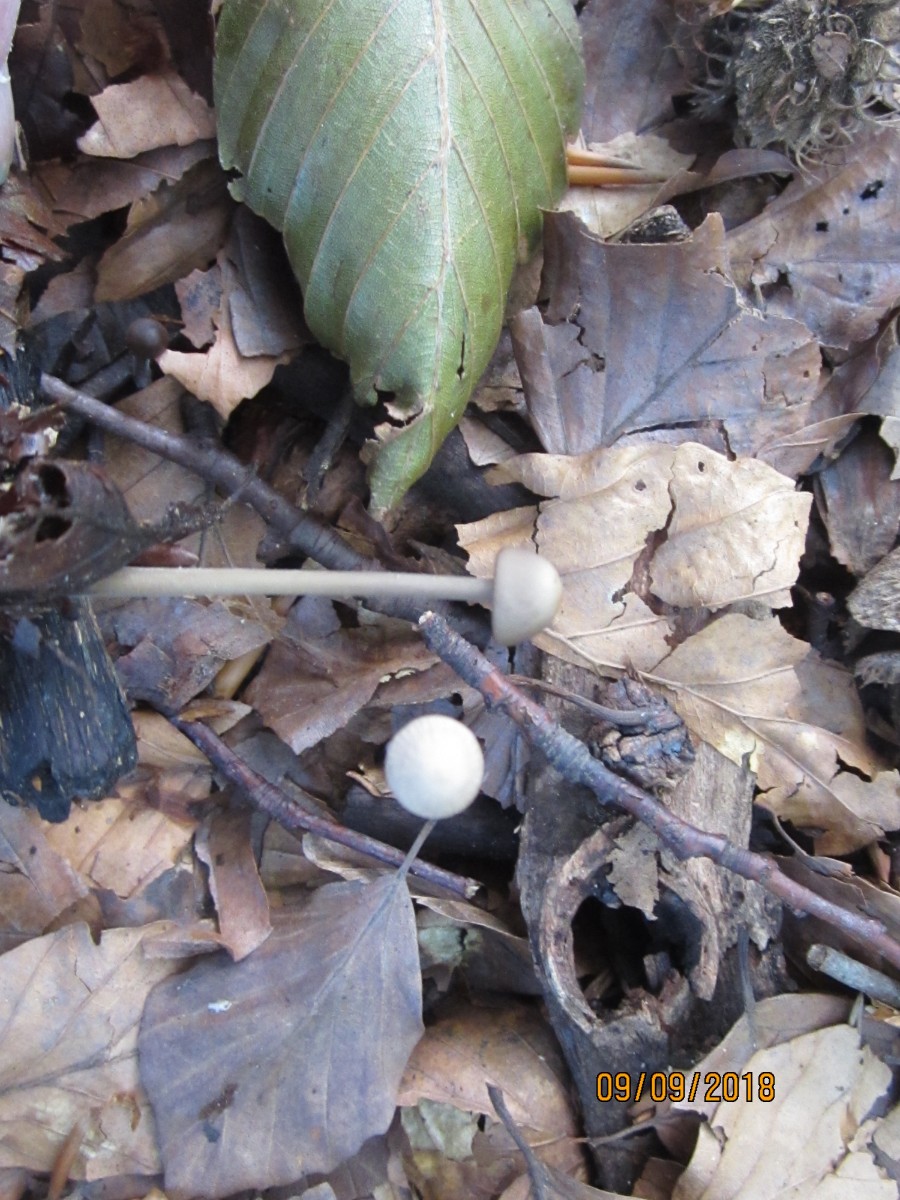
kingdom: Fungi
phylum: Basidiomycota
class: Agaricomycetes
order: Agaricales
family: Omphalotaceae
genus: Mycetinis
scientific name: Mycetinis alliaceus
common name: stor løghat
